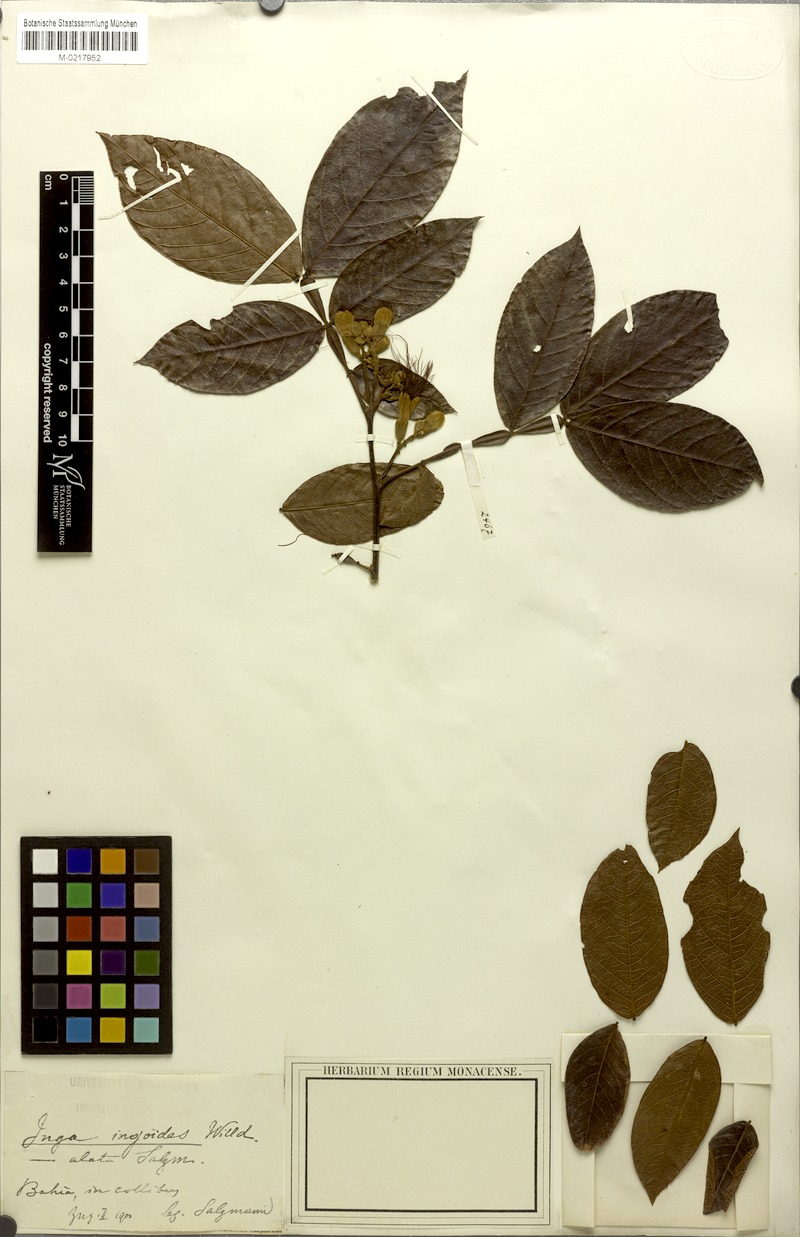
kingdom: Plantae
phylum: Tracheophyta
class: Magnoliopsida
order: Fabales
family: Fabaceae
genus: Inga
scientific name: Inga ingoides
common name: Spanish ash
